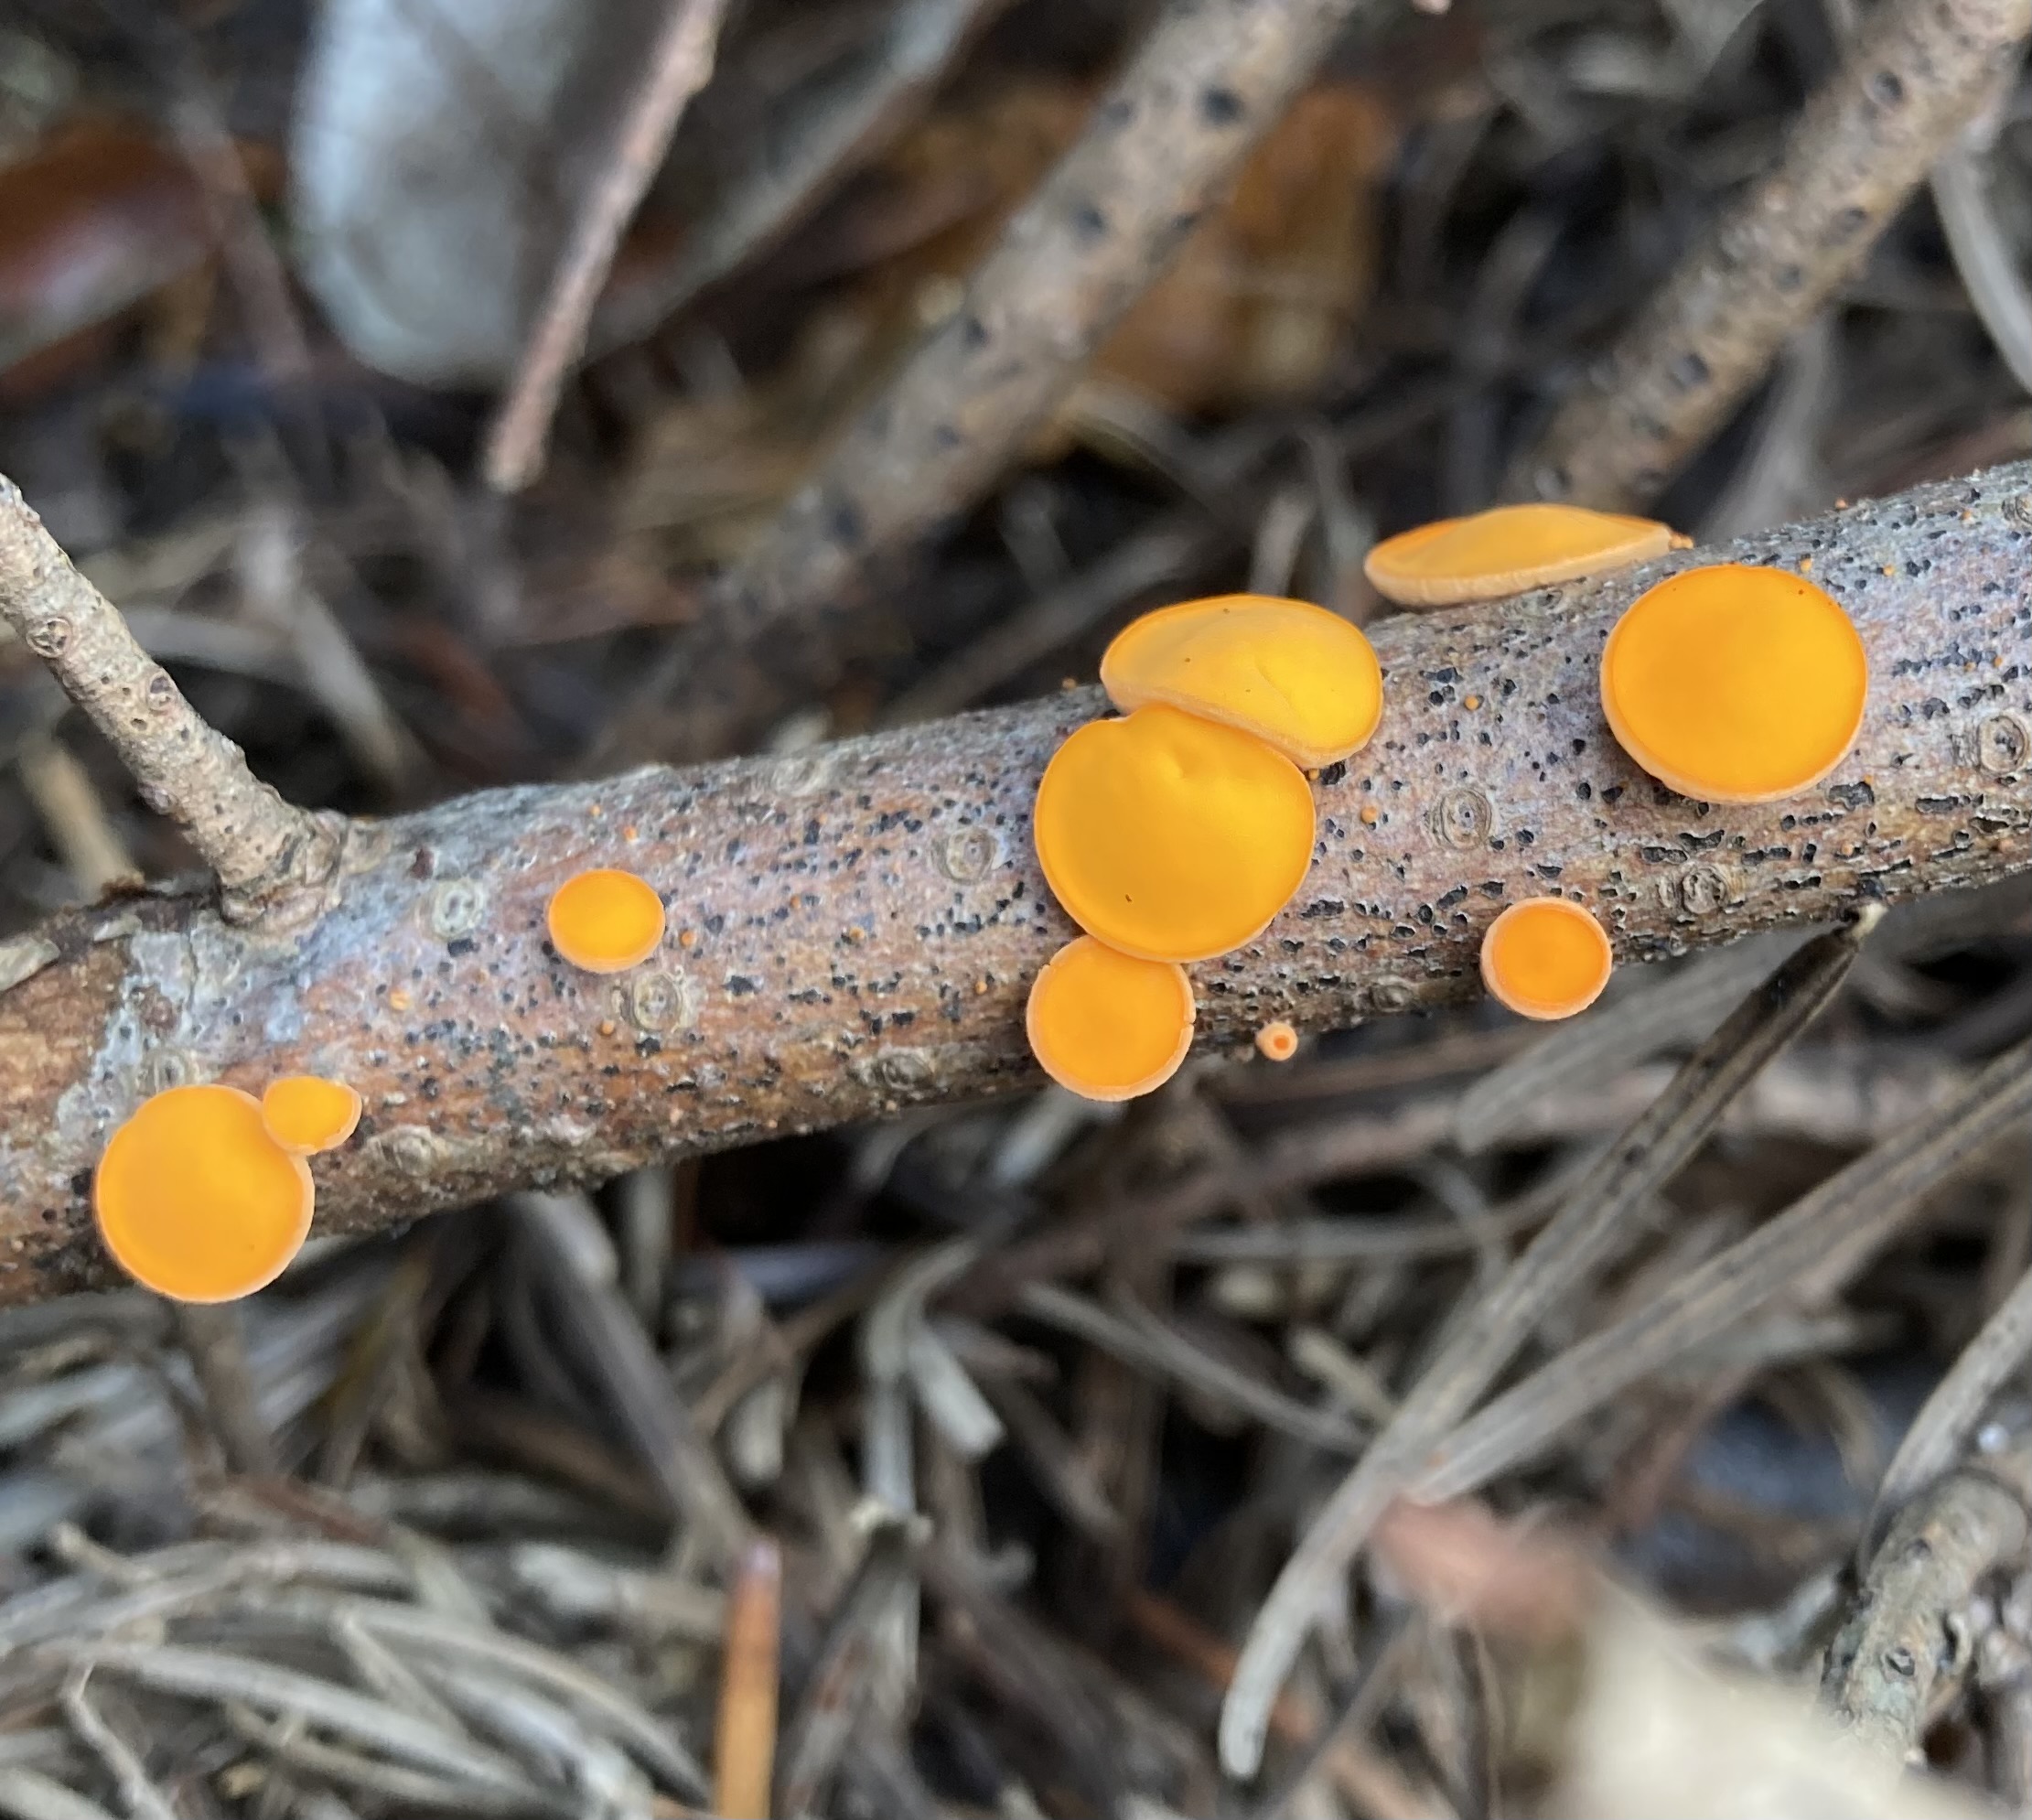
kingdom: Fungi
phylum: Ascomycota
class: Pezizomycetes
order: Pezizales
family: Sarcoscyphaceae
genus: Pithya
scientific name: Pithya vulgaris
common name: stor dukatbæger
